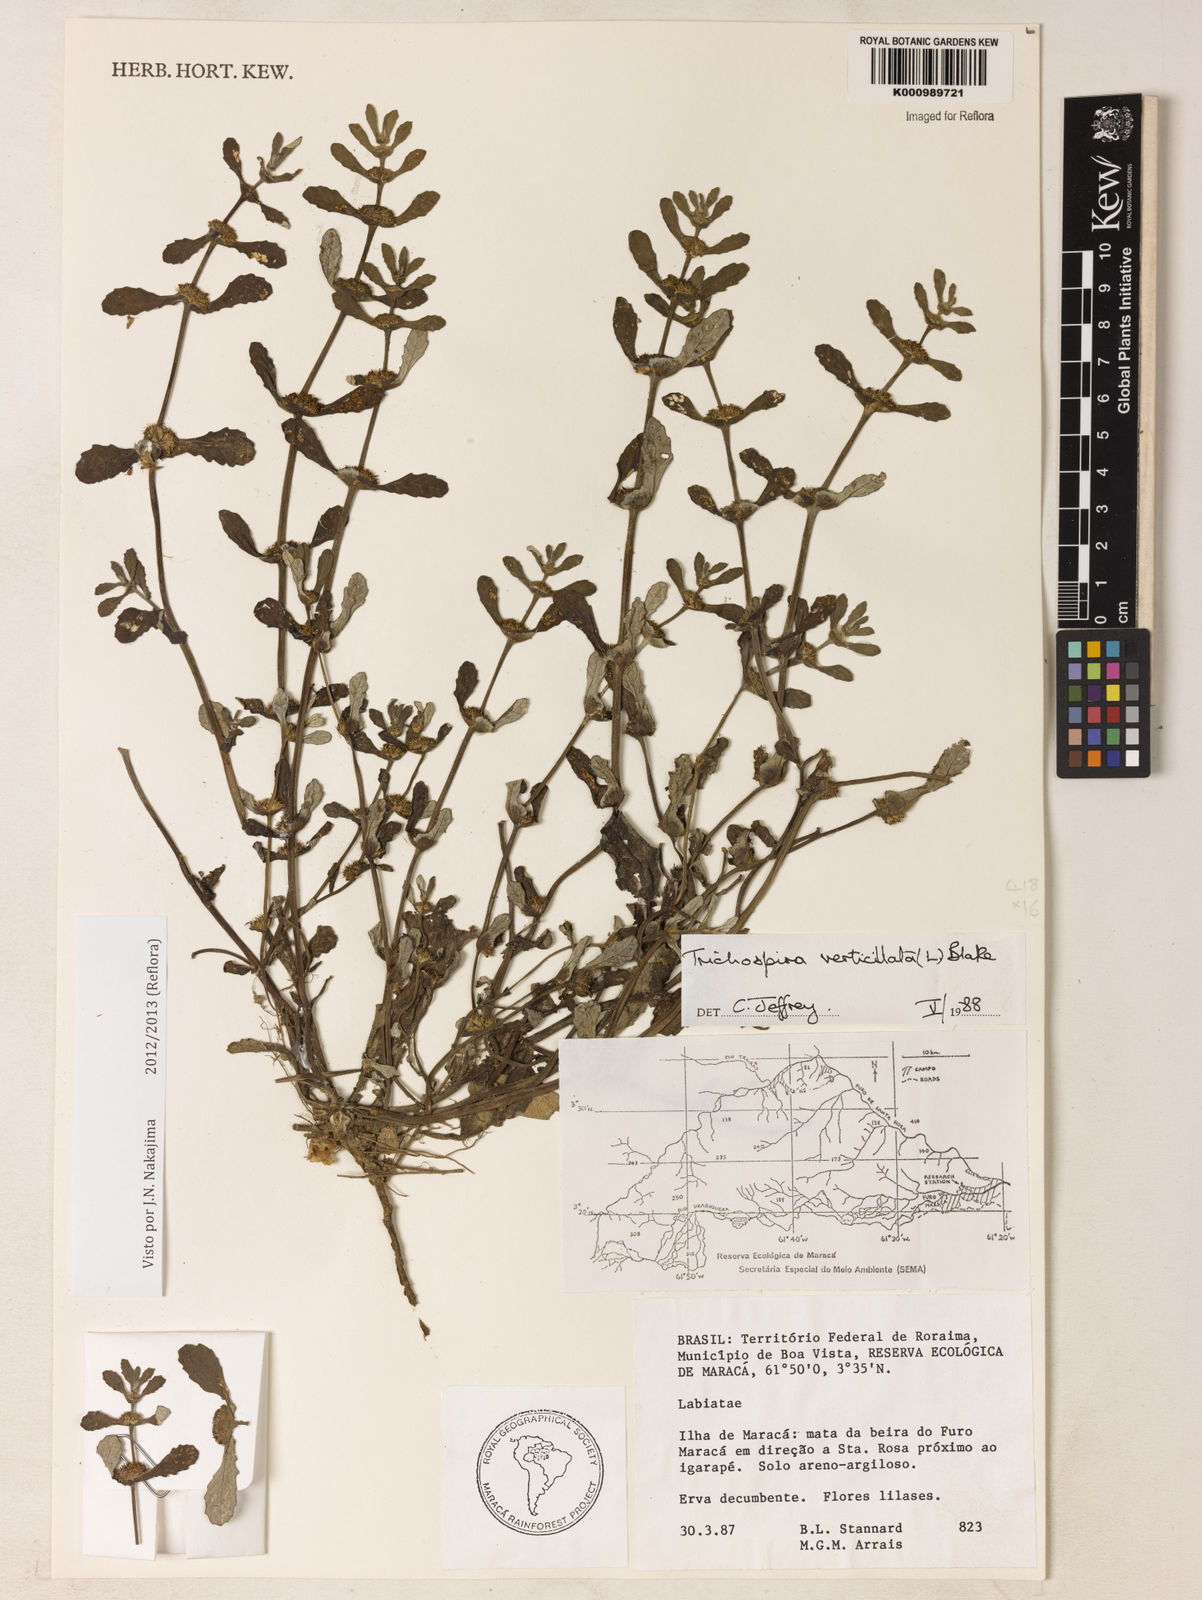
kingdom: Chromista
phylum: Ciliophora
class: Kinetofragminophora
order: Trichostomatida
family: Trichospiridae
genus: Trichospira
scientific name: Trichospira verticillata
